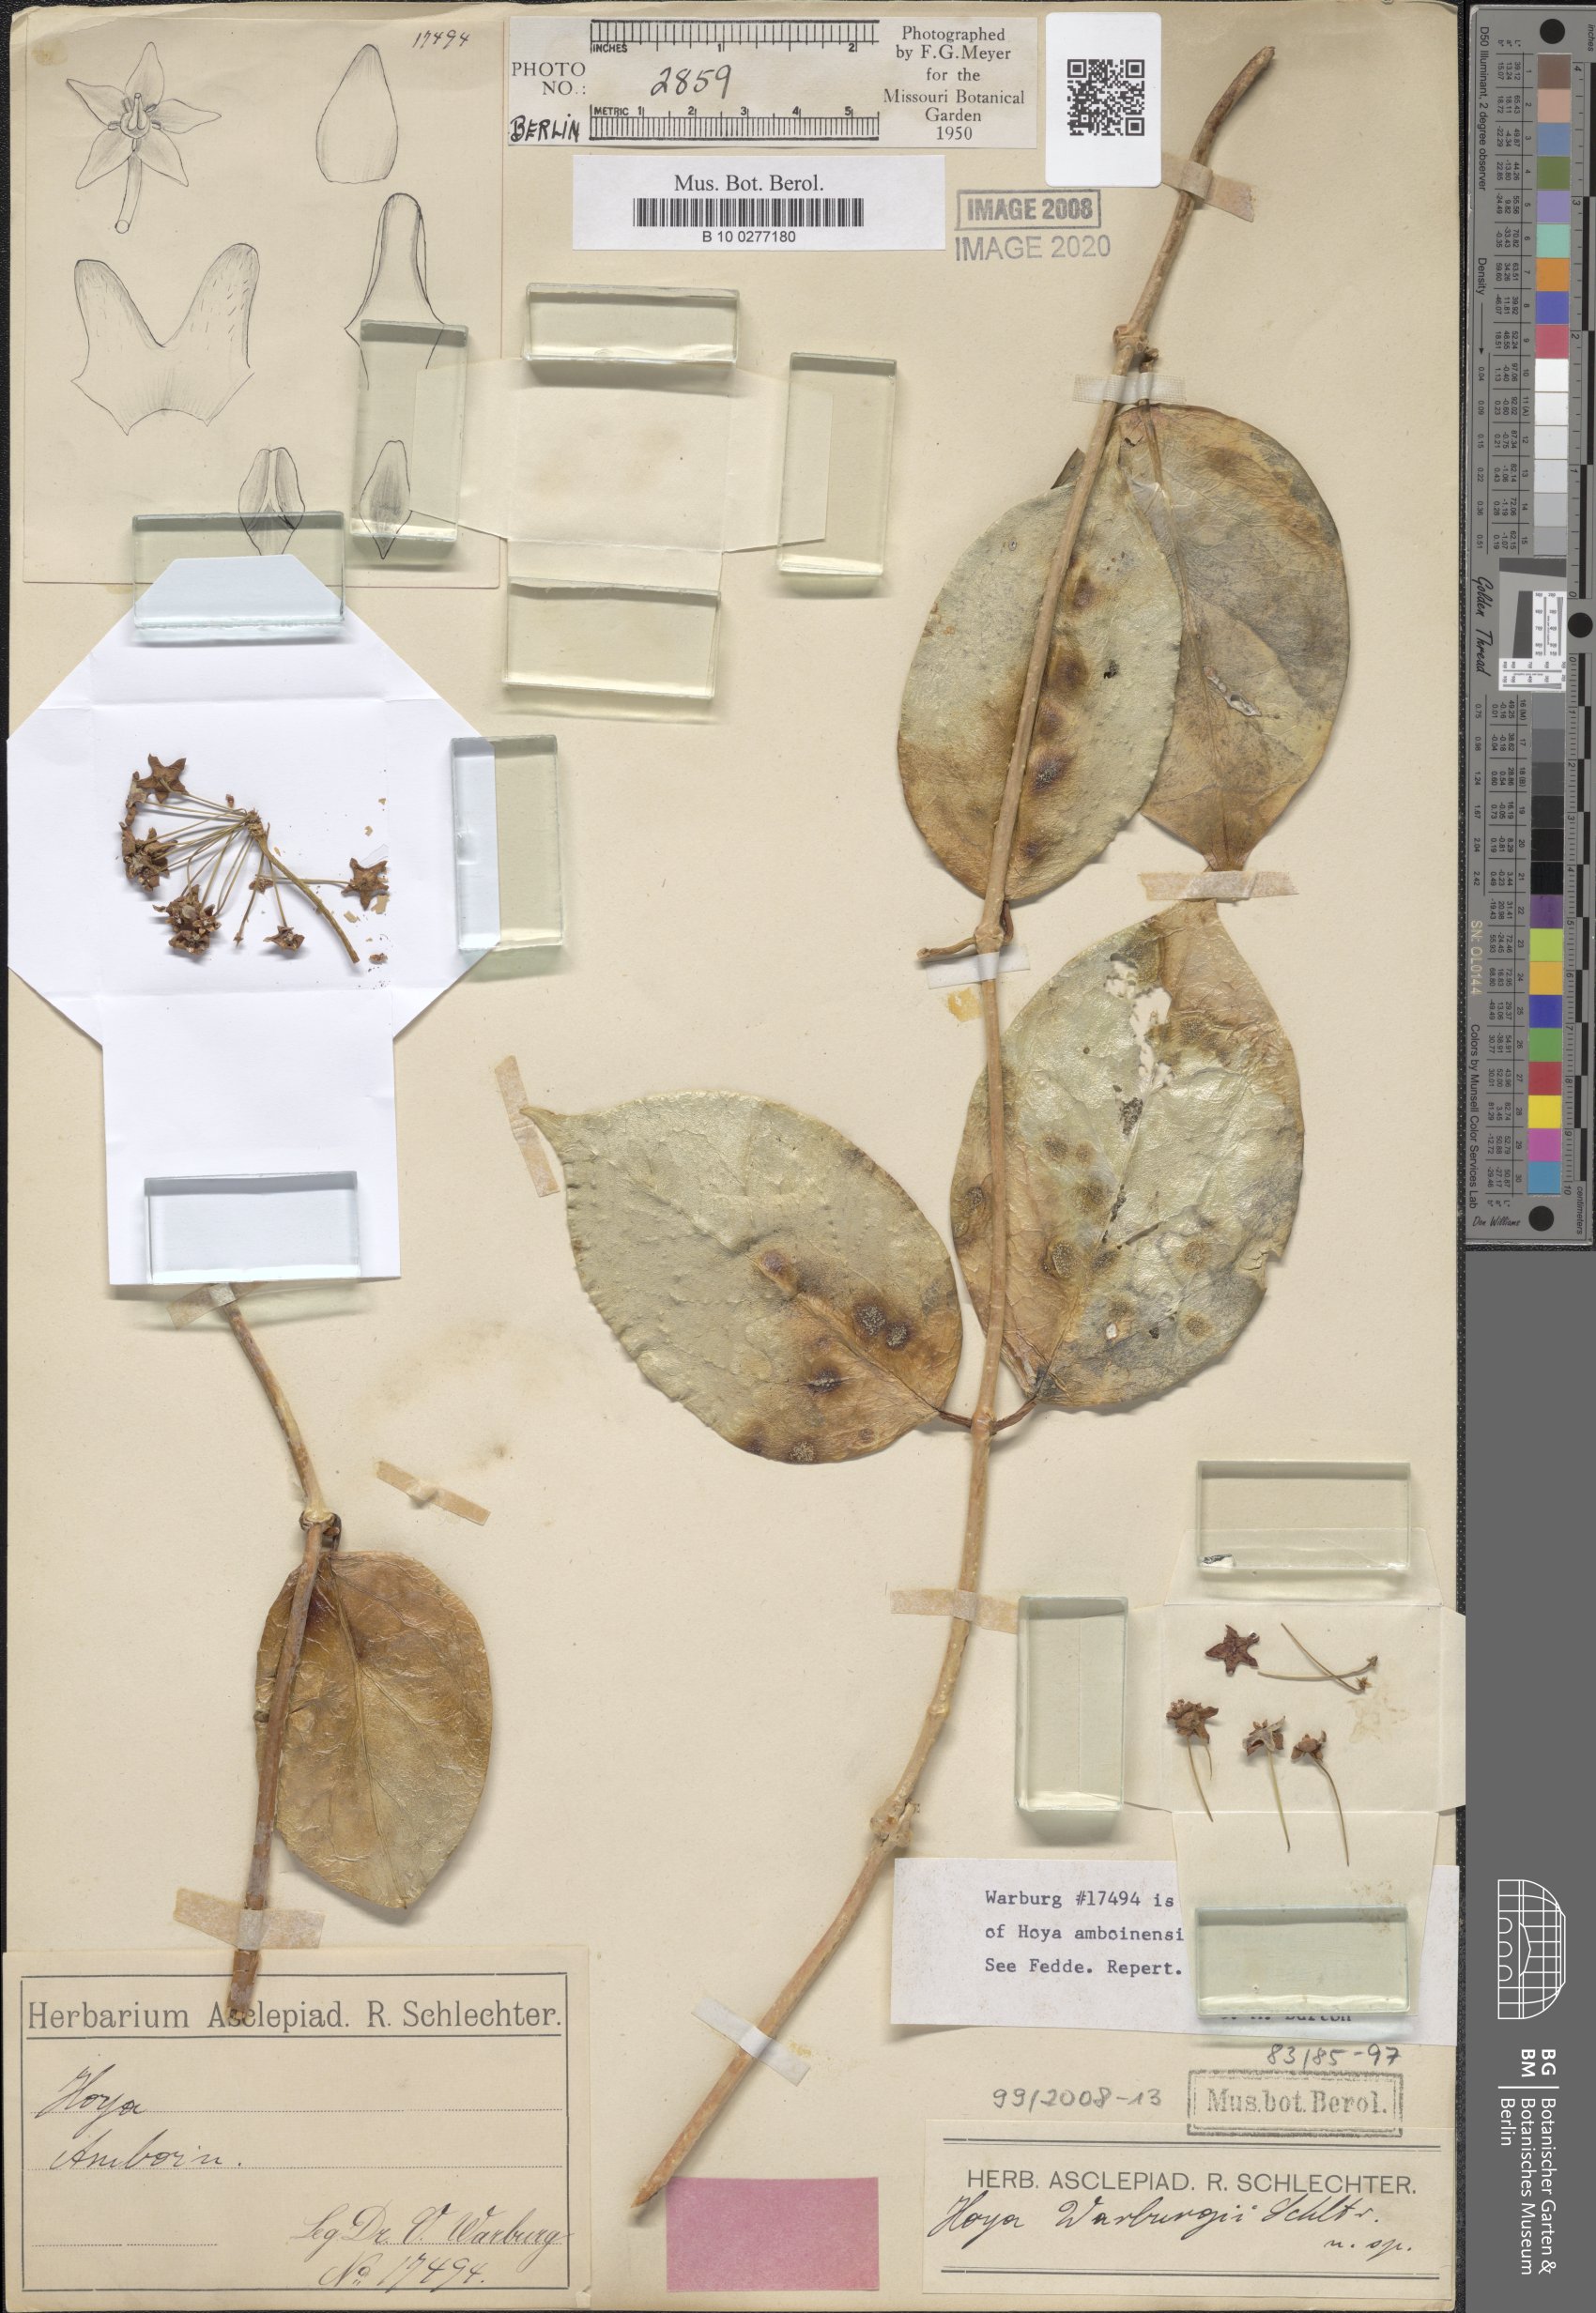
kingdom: Plantae
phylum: Tracheophyta
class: Magnoliopsida
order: Gentianales
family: Apocynaceae
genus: Hoya
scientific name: Hoya
